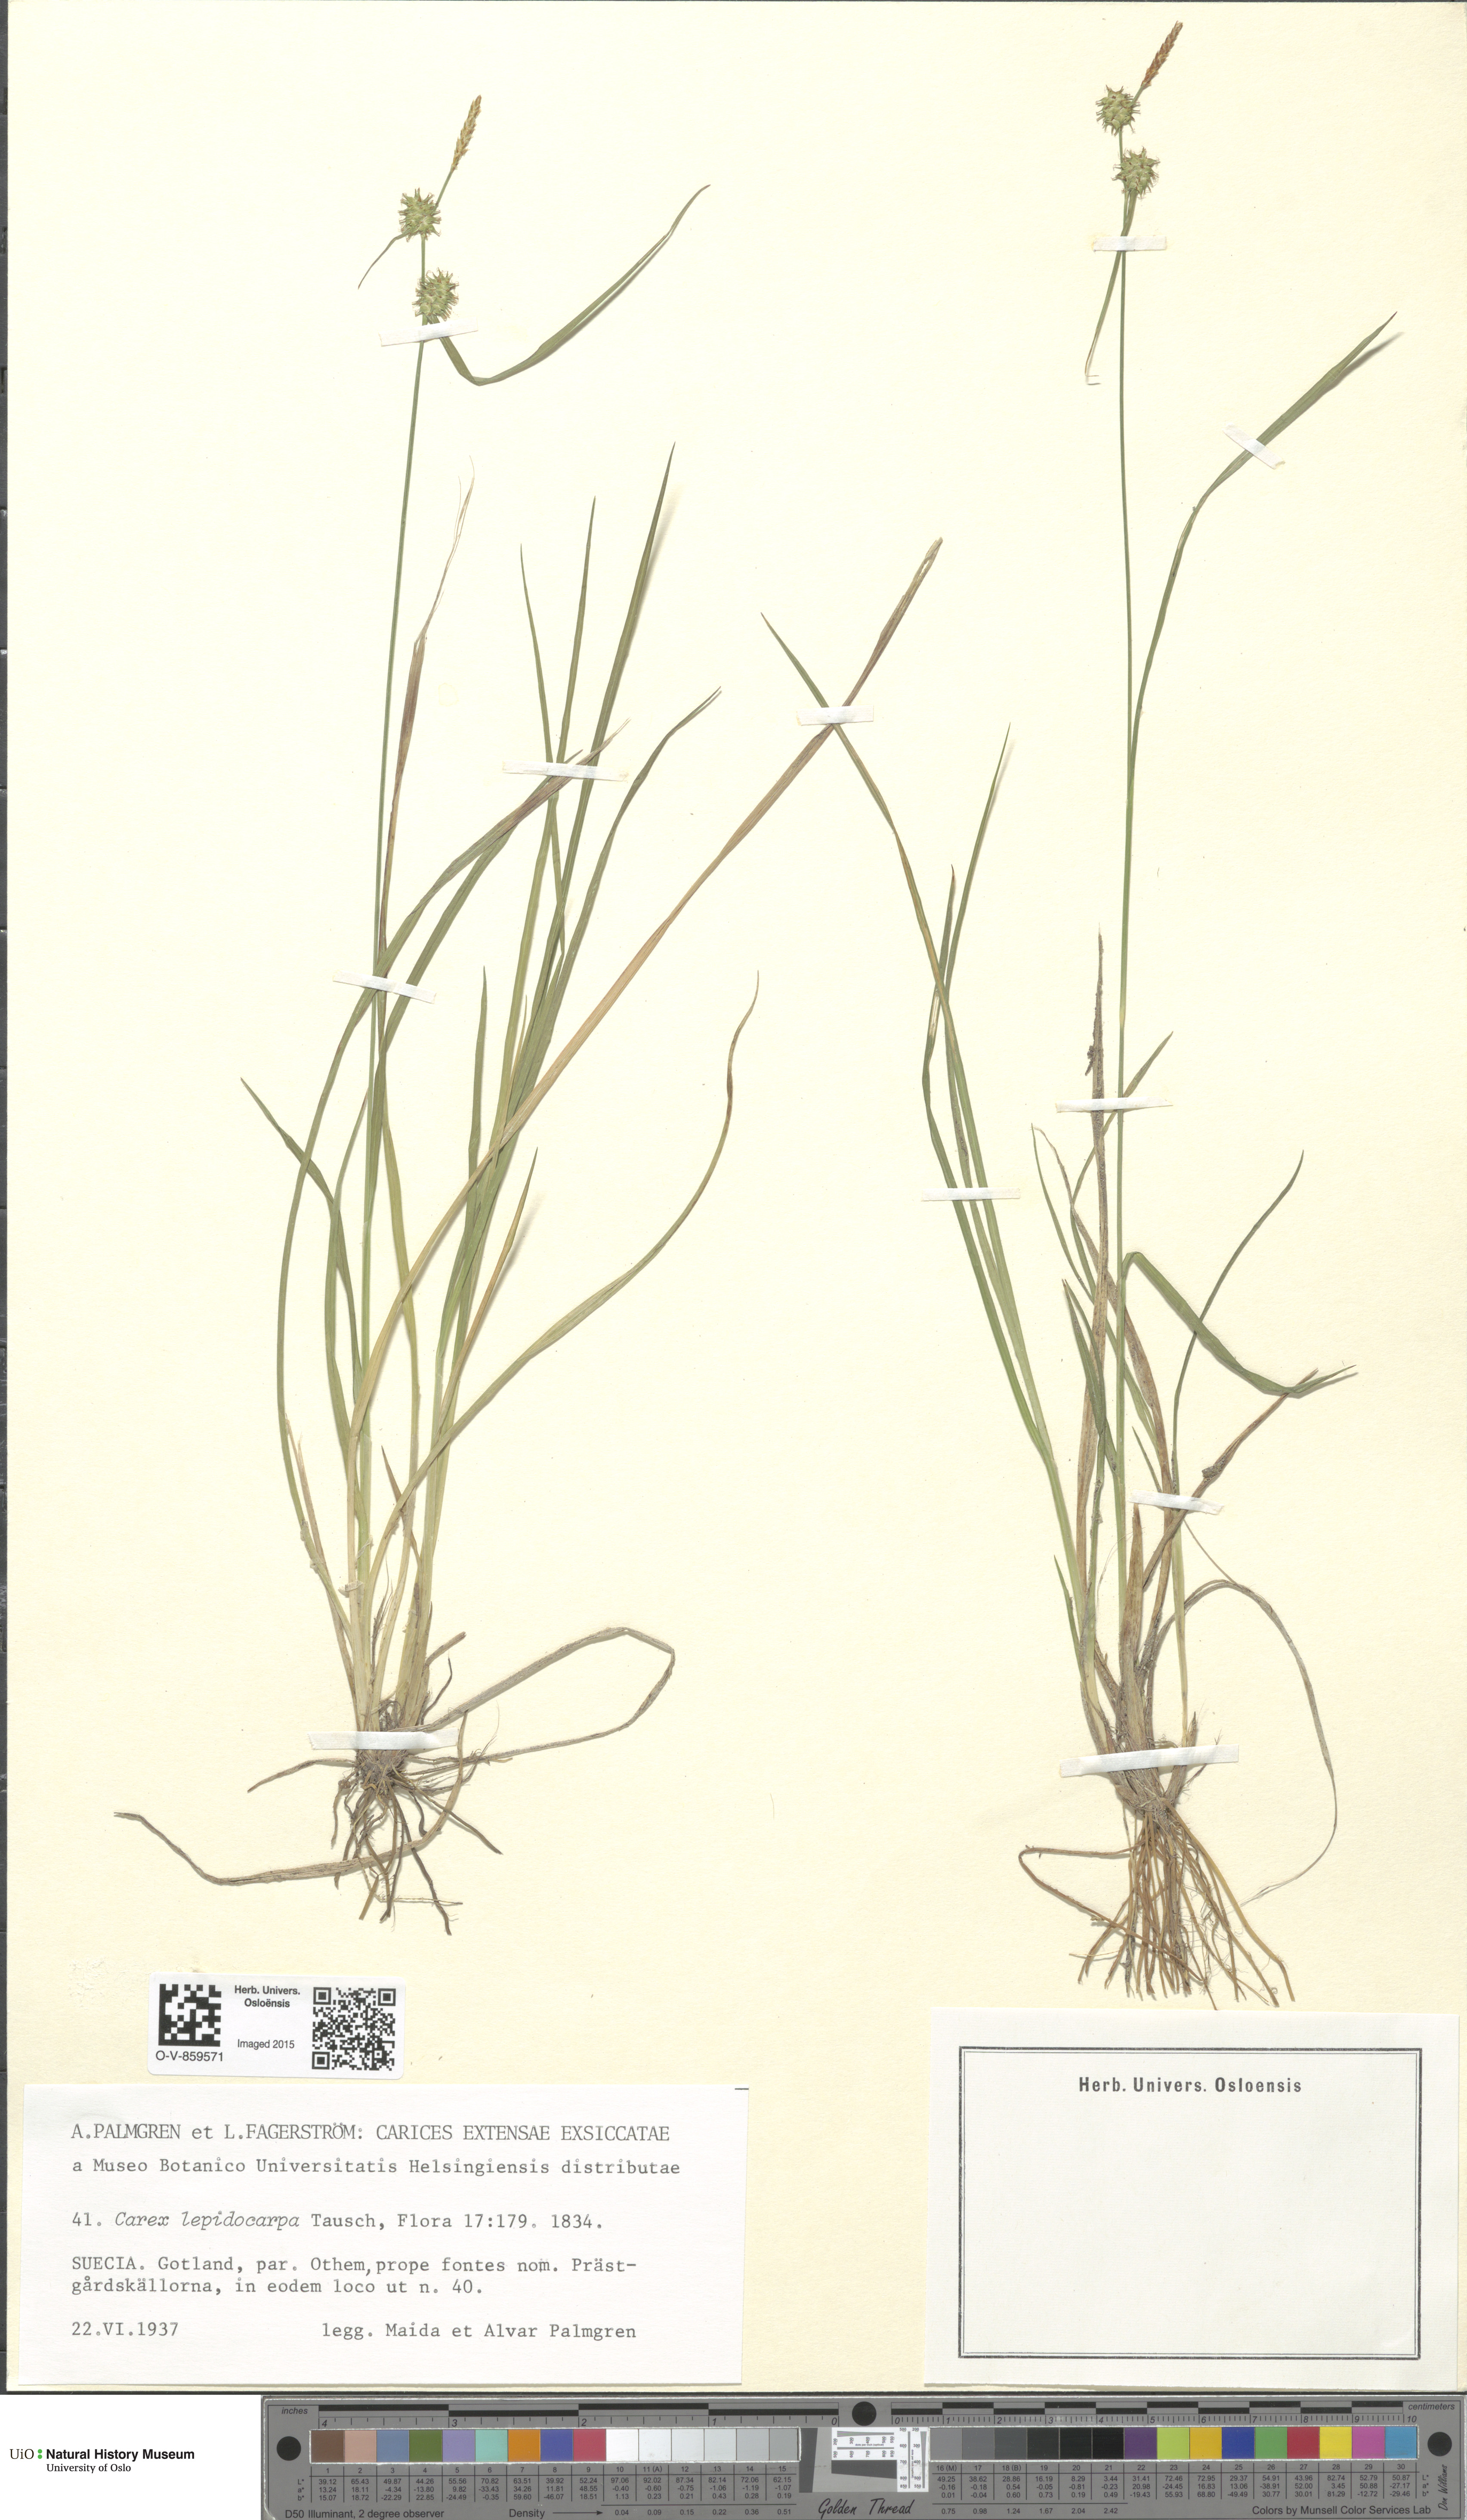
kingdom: Plantae
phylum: Tracheophyta
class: Liliopsida
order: Poales
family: Cyperaceae
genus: Carex
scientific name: Carex lepidocarpa
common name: Long-stalked yellow-sedge
